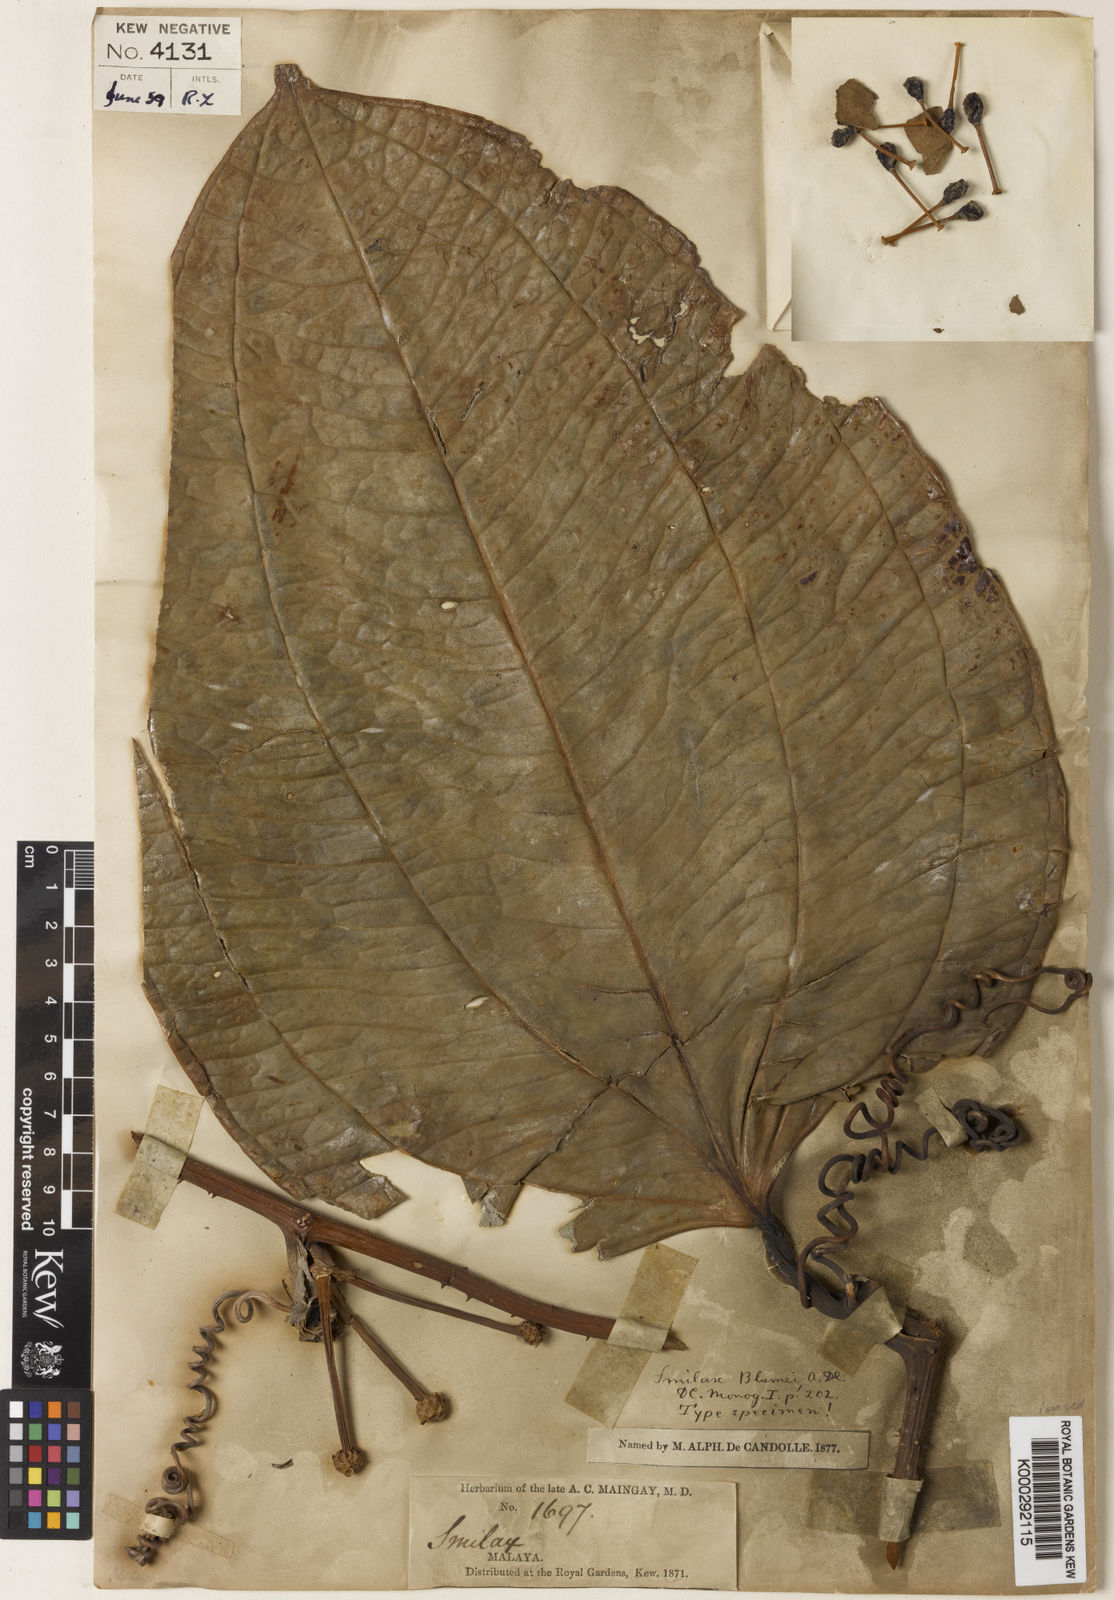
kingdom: Plantae
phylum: Tracheophyta
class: Liliopsida
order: Liliales
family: Smilacaceae
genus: Smilax
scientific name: Smilax blumei
